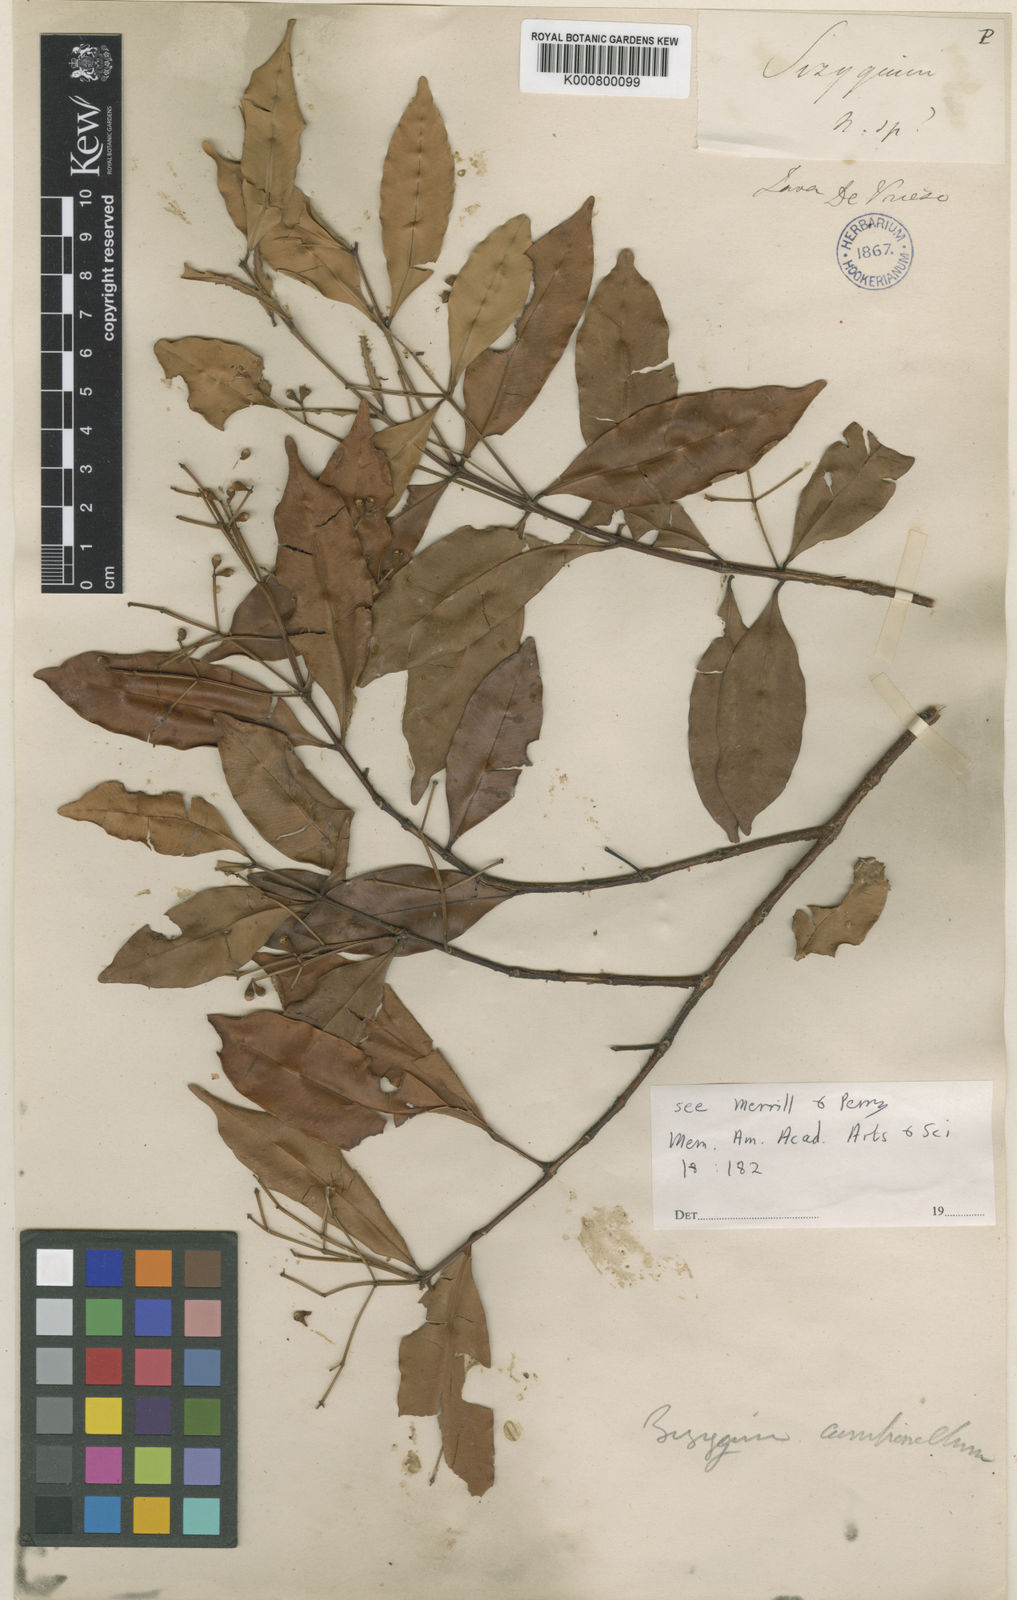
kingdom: Plantae
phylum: Tracheophyta
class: Magnoliopsida
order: Myrtales
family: Myrtaceae
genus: Syzygium
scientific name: Syzygium myrtifolium
